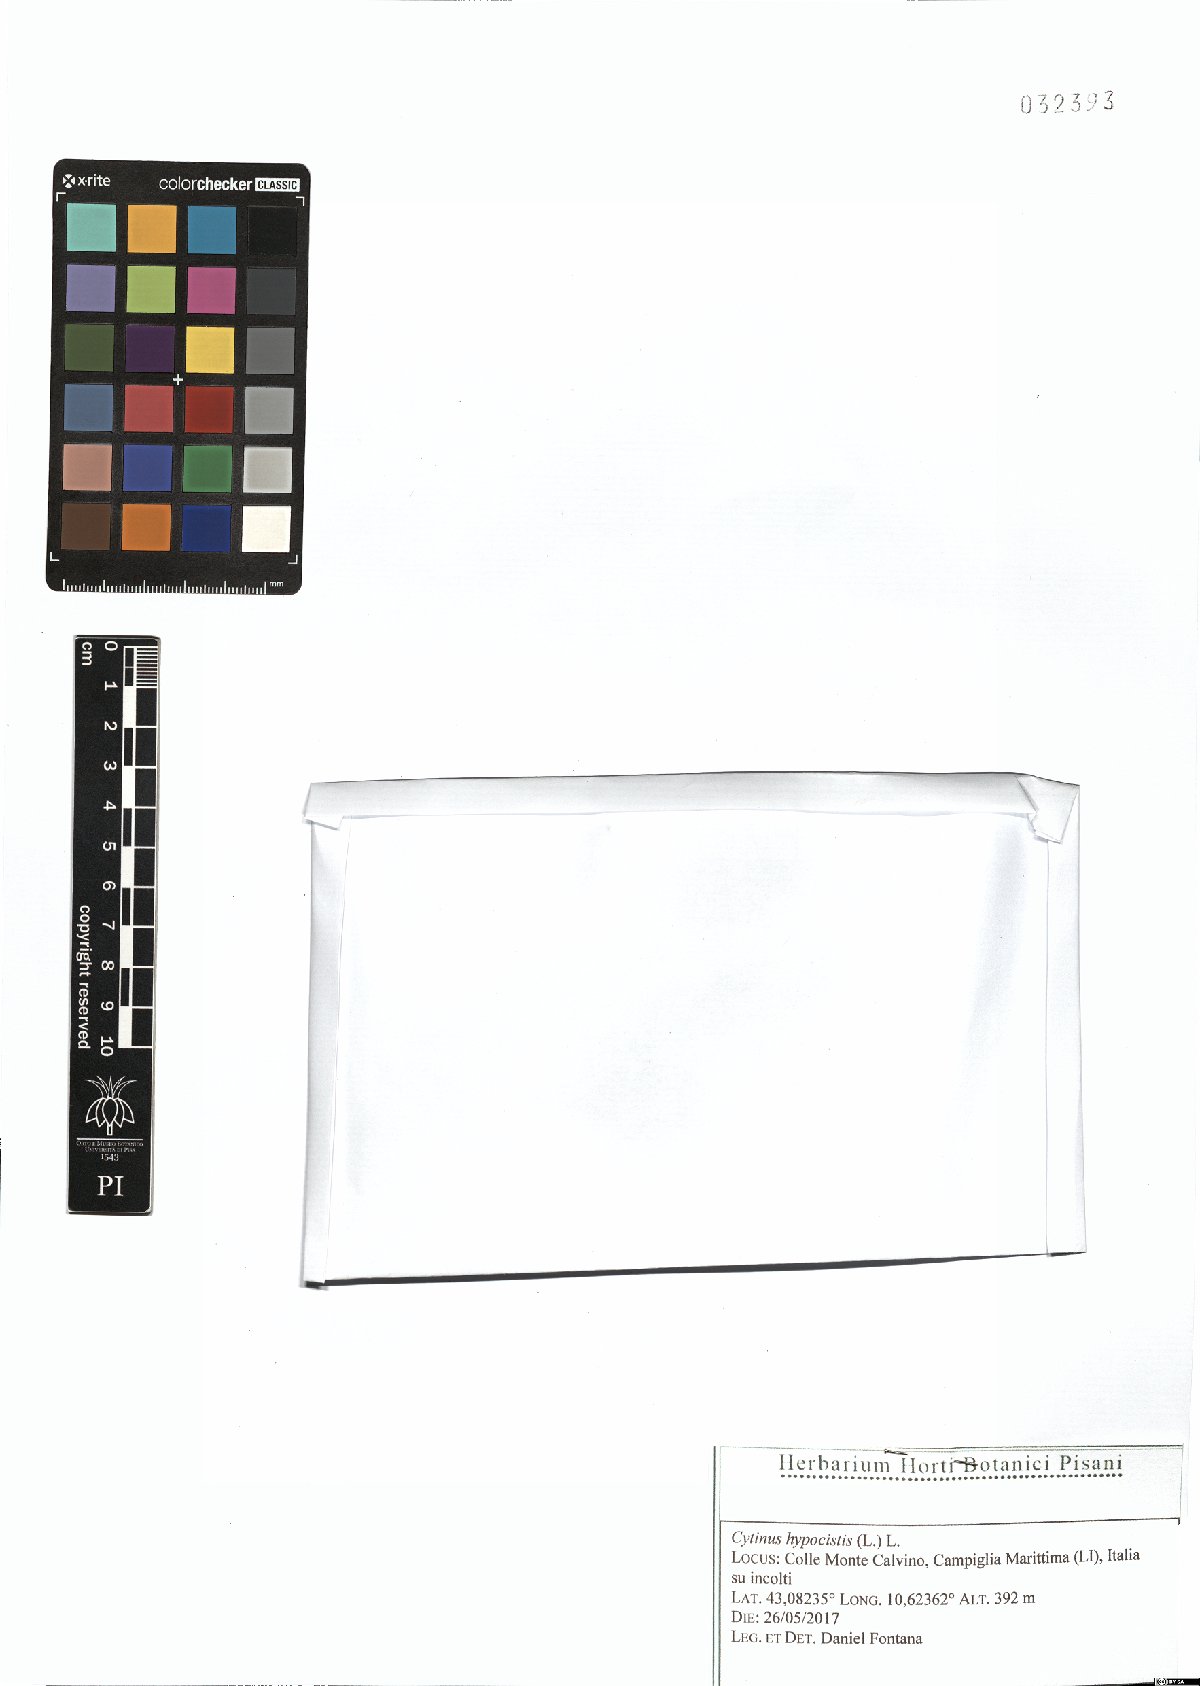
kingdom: Plantae
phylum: Tracheophyta
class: Magnoliopsida
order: Malvales
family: Cytinaceae
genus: Cytinus
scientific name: Cytinus hypocistis
